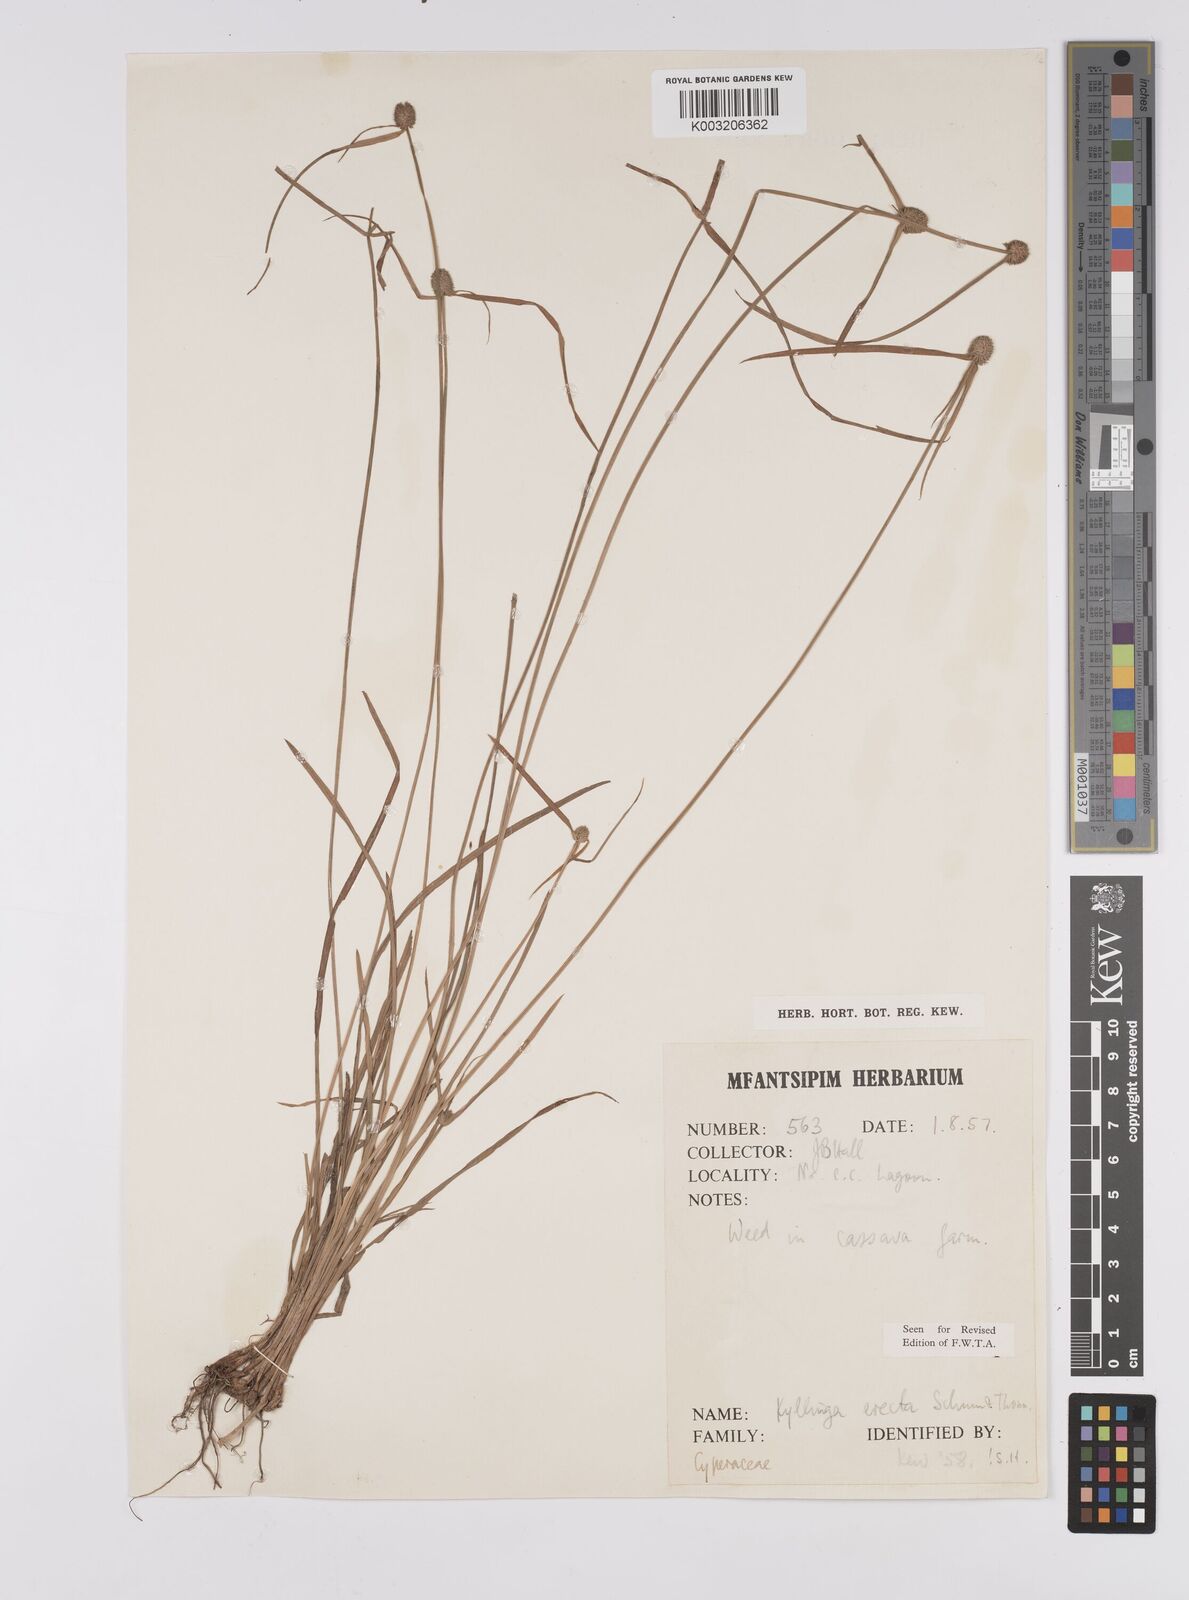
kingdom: Plantae
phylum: Tracheophyta
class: Liliopsida
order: Poales
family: Cyperaceae
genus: Cyperus
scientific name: Cyperus erectus
